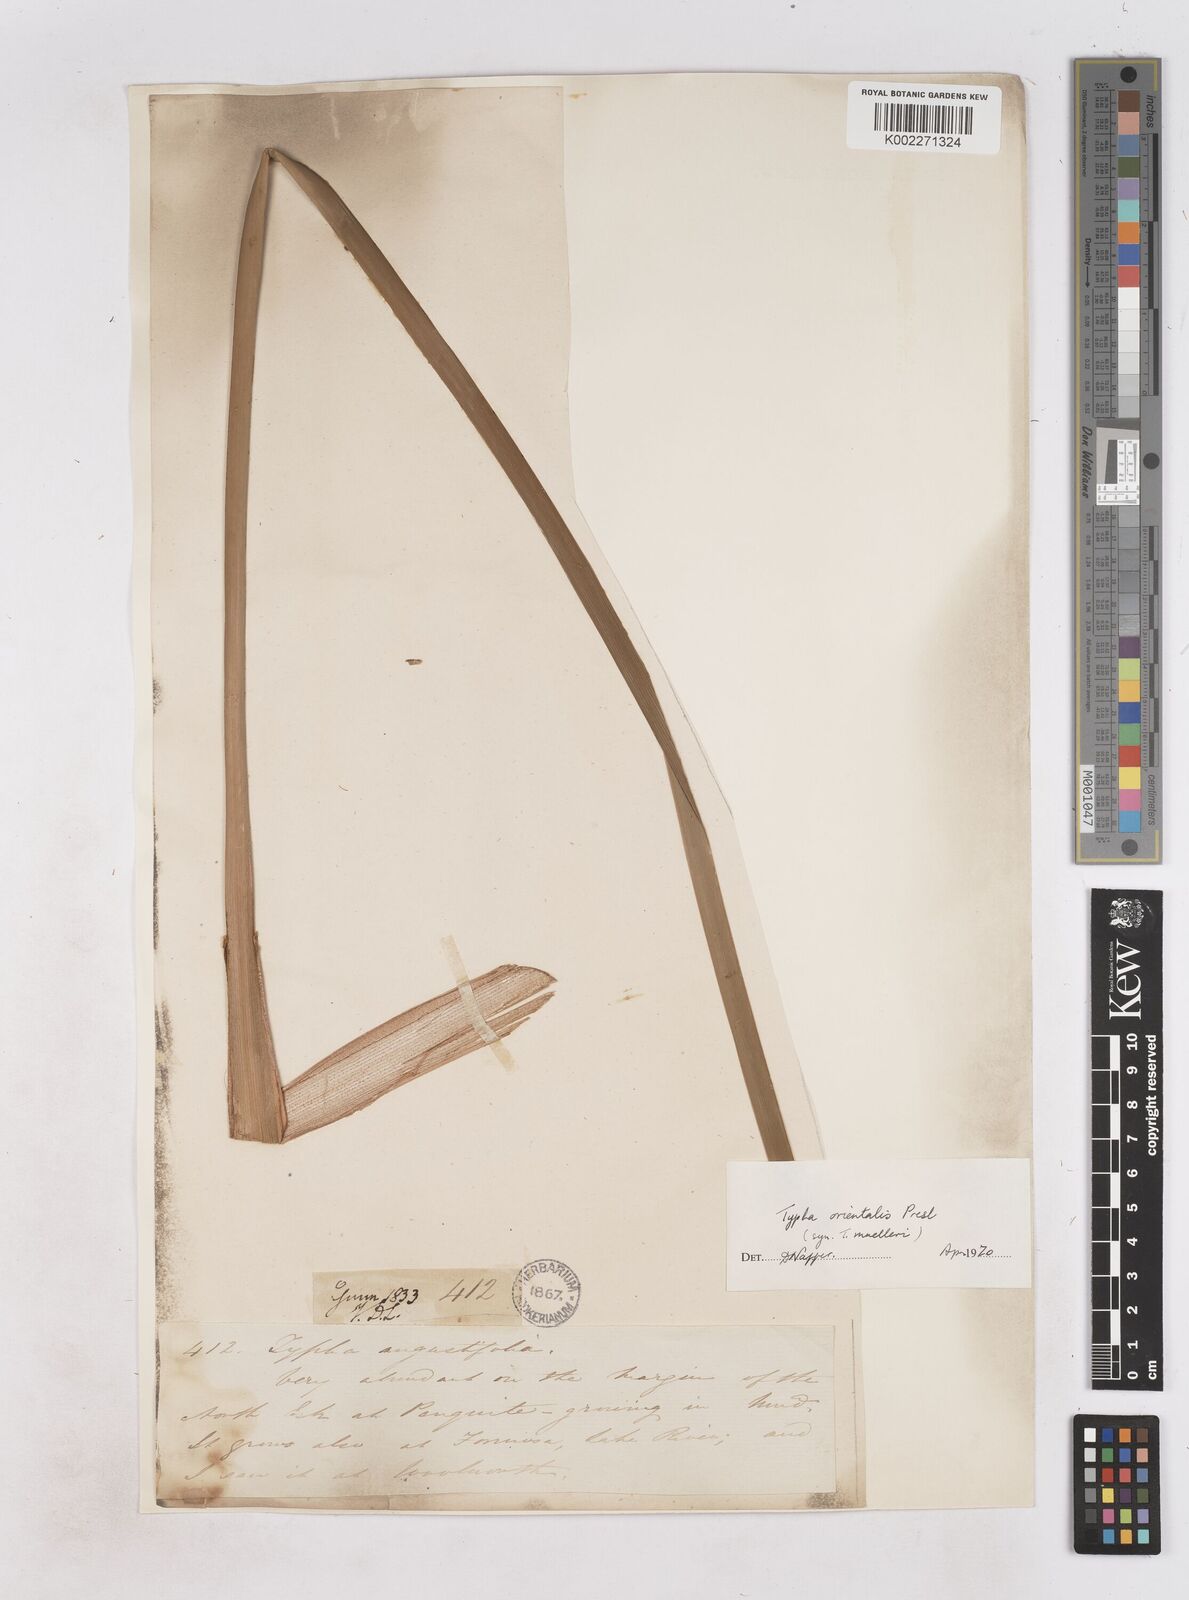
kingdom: Plantae
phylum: Tracheophyta
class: Liliopsida
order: Poales
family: Typhaceae
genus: Typha
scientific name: Typha orientalis
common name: Bullrush
